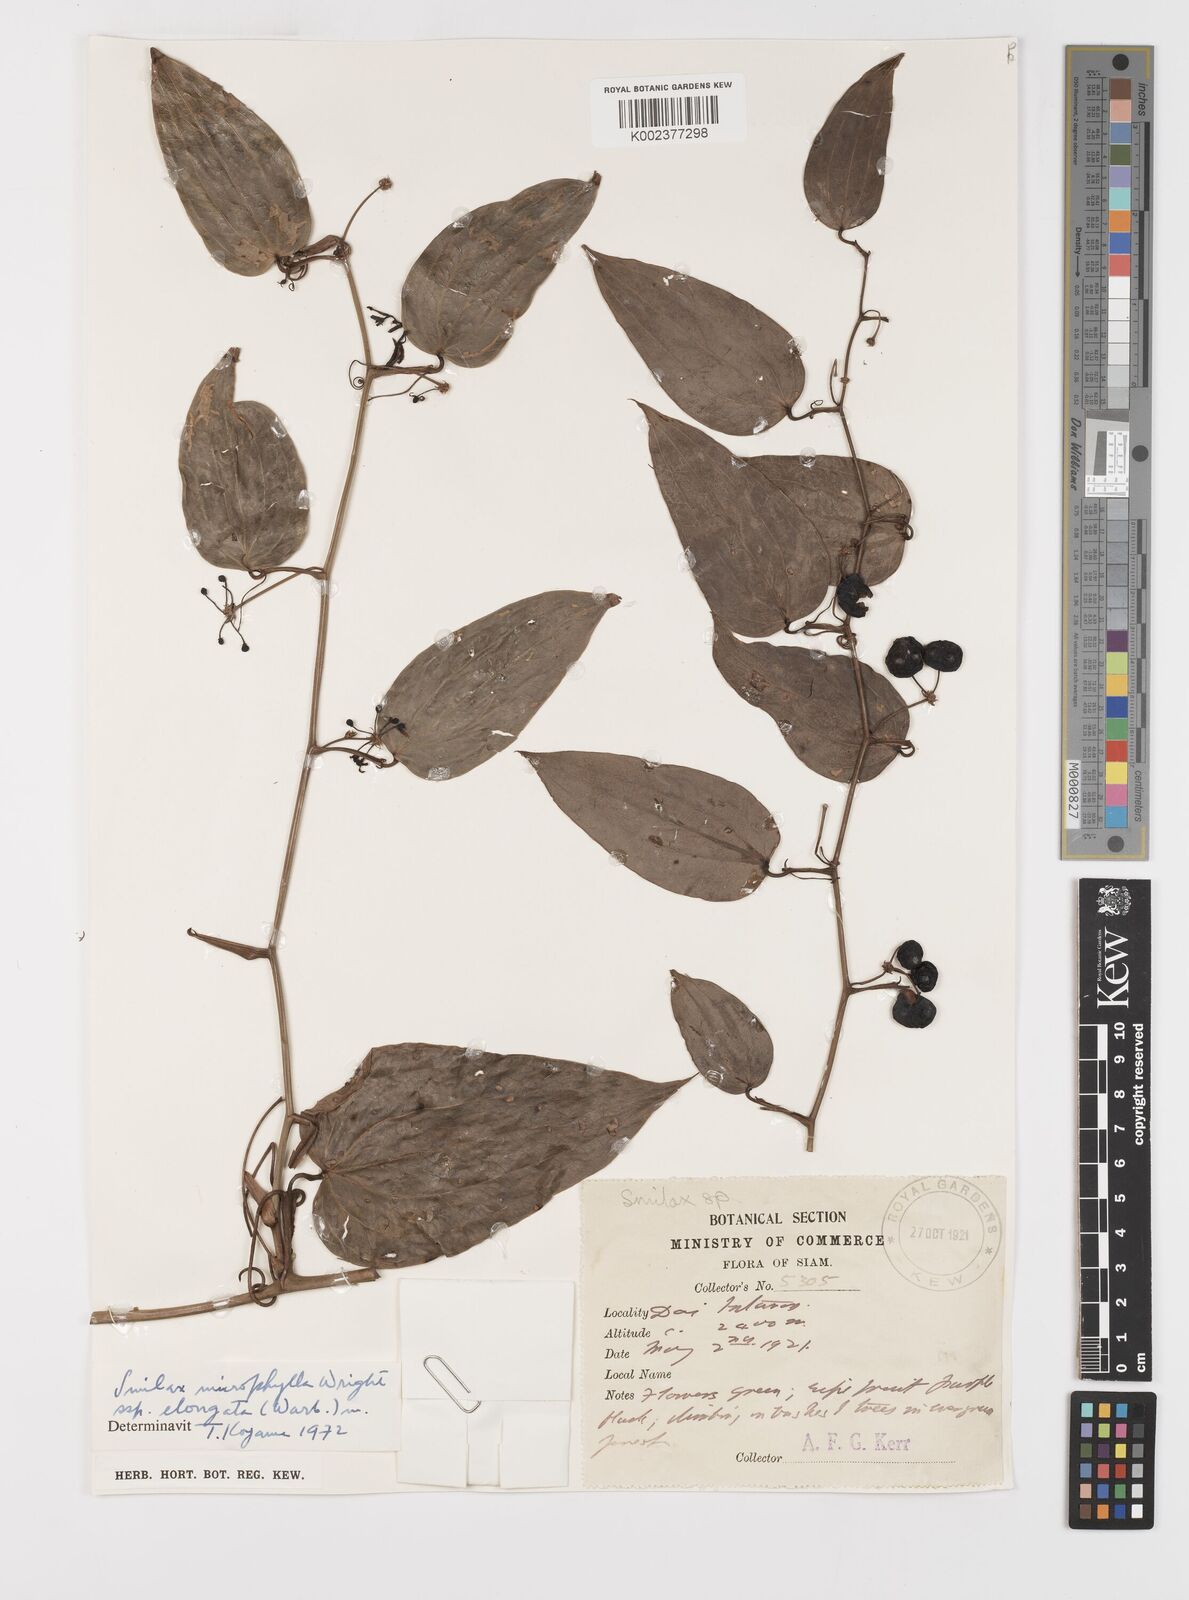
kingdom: Plantae
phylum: Tracheophyta
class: Liliopsida
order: Liliales
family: Smilacaceae
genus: Smilax
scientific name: Smilax lanceifolia
